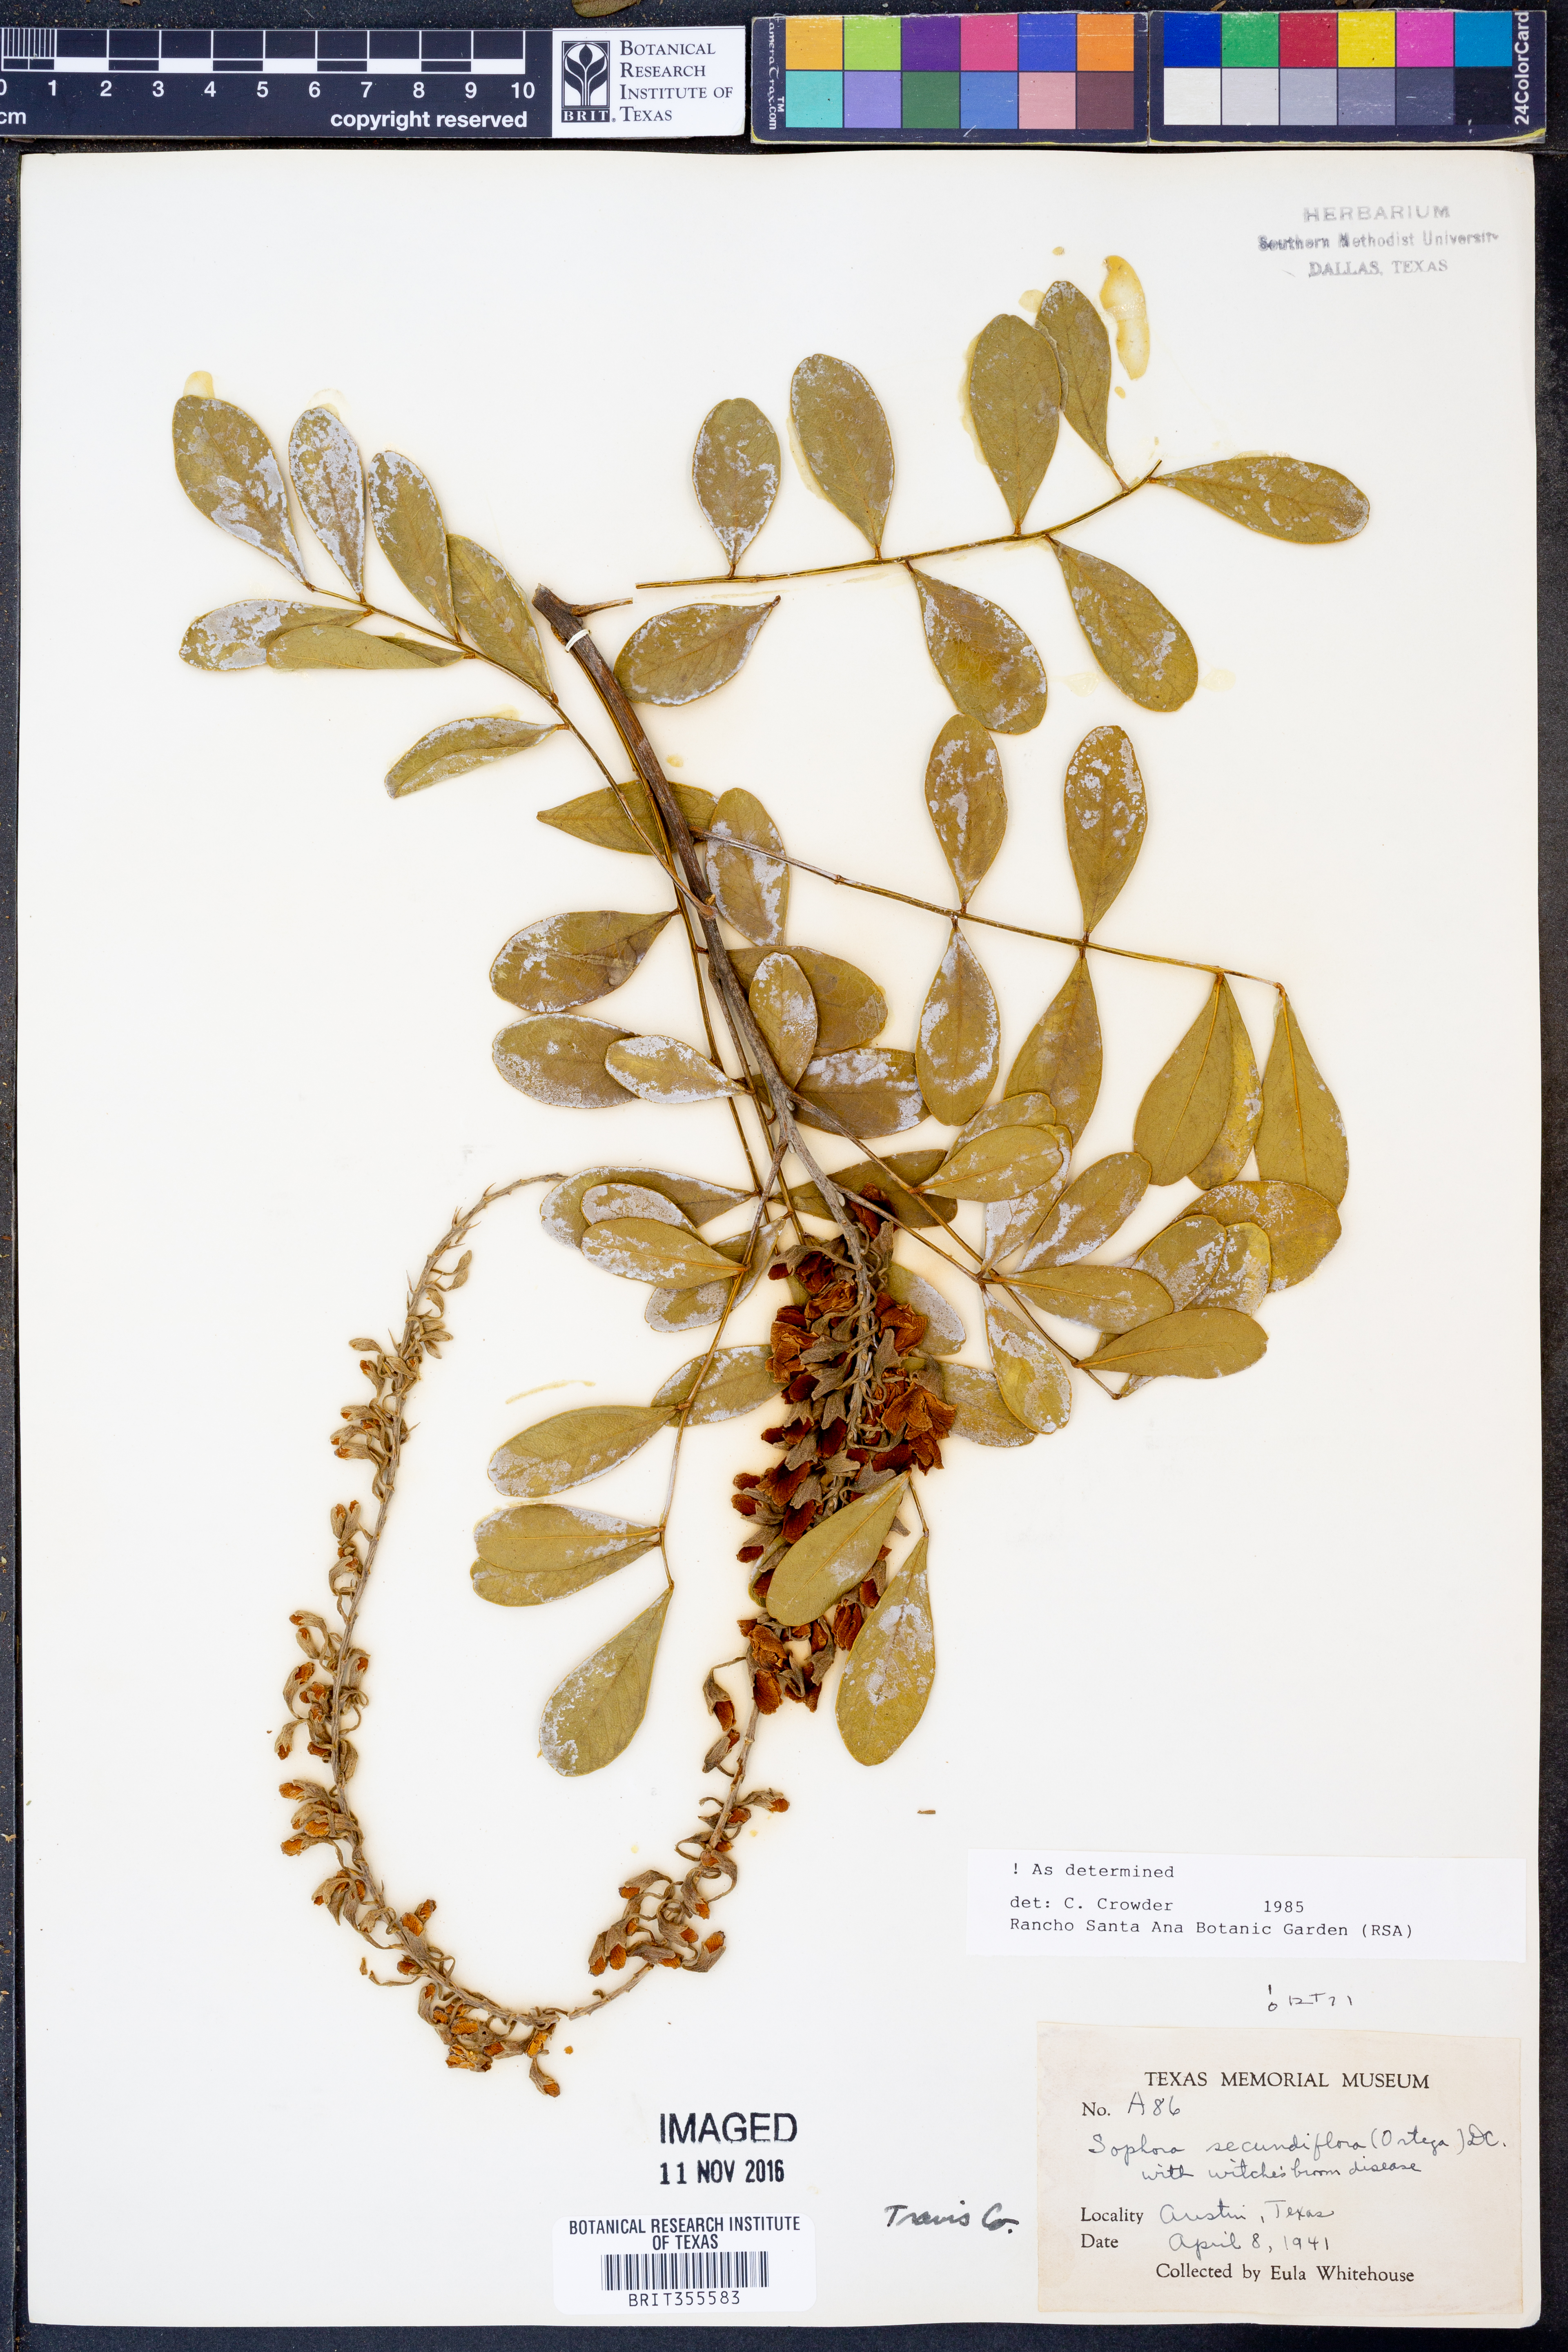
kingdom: Plantae
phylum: Tracheophyta
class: Magnoliopsida
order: Fabales
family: Fabaceae
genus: Dermatophyllum
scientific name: Dermatophyllum secundiflorum
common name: Texas-mountain-laurel
